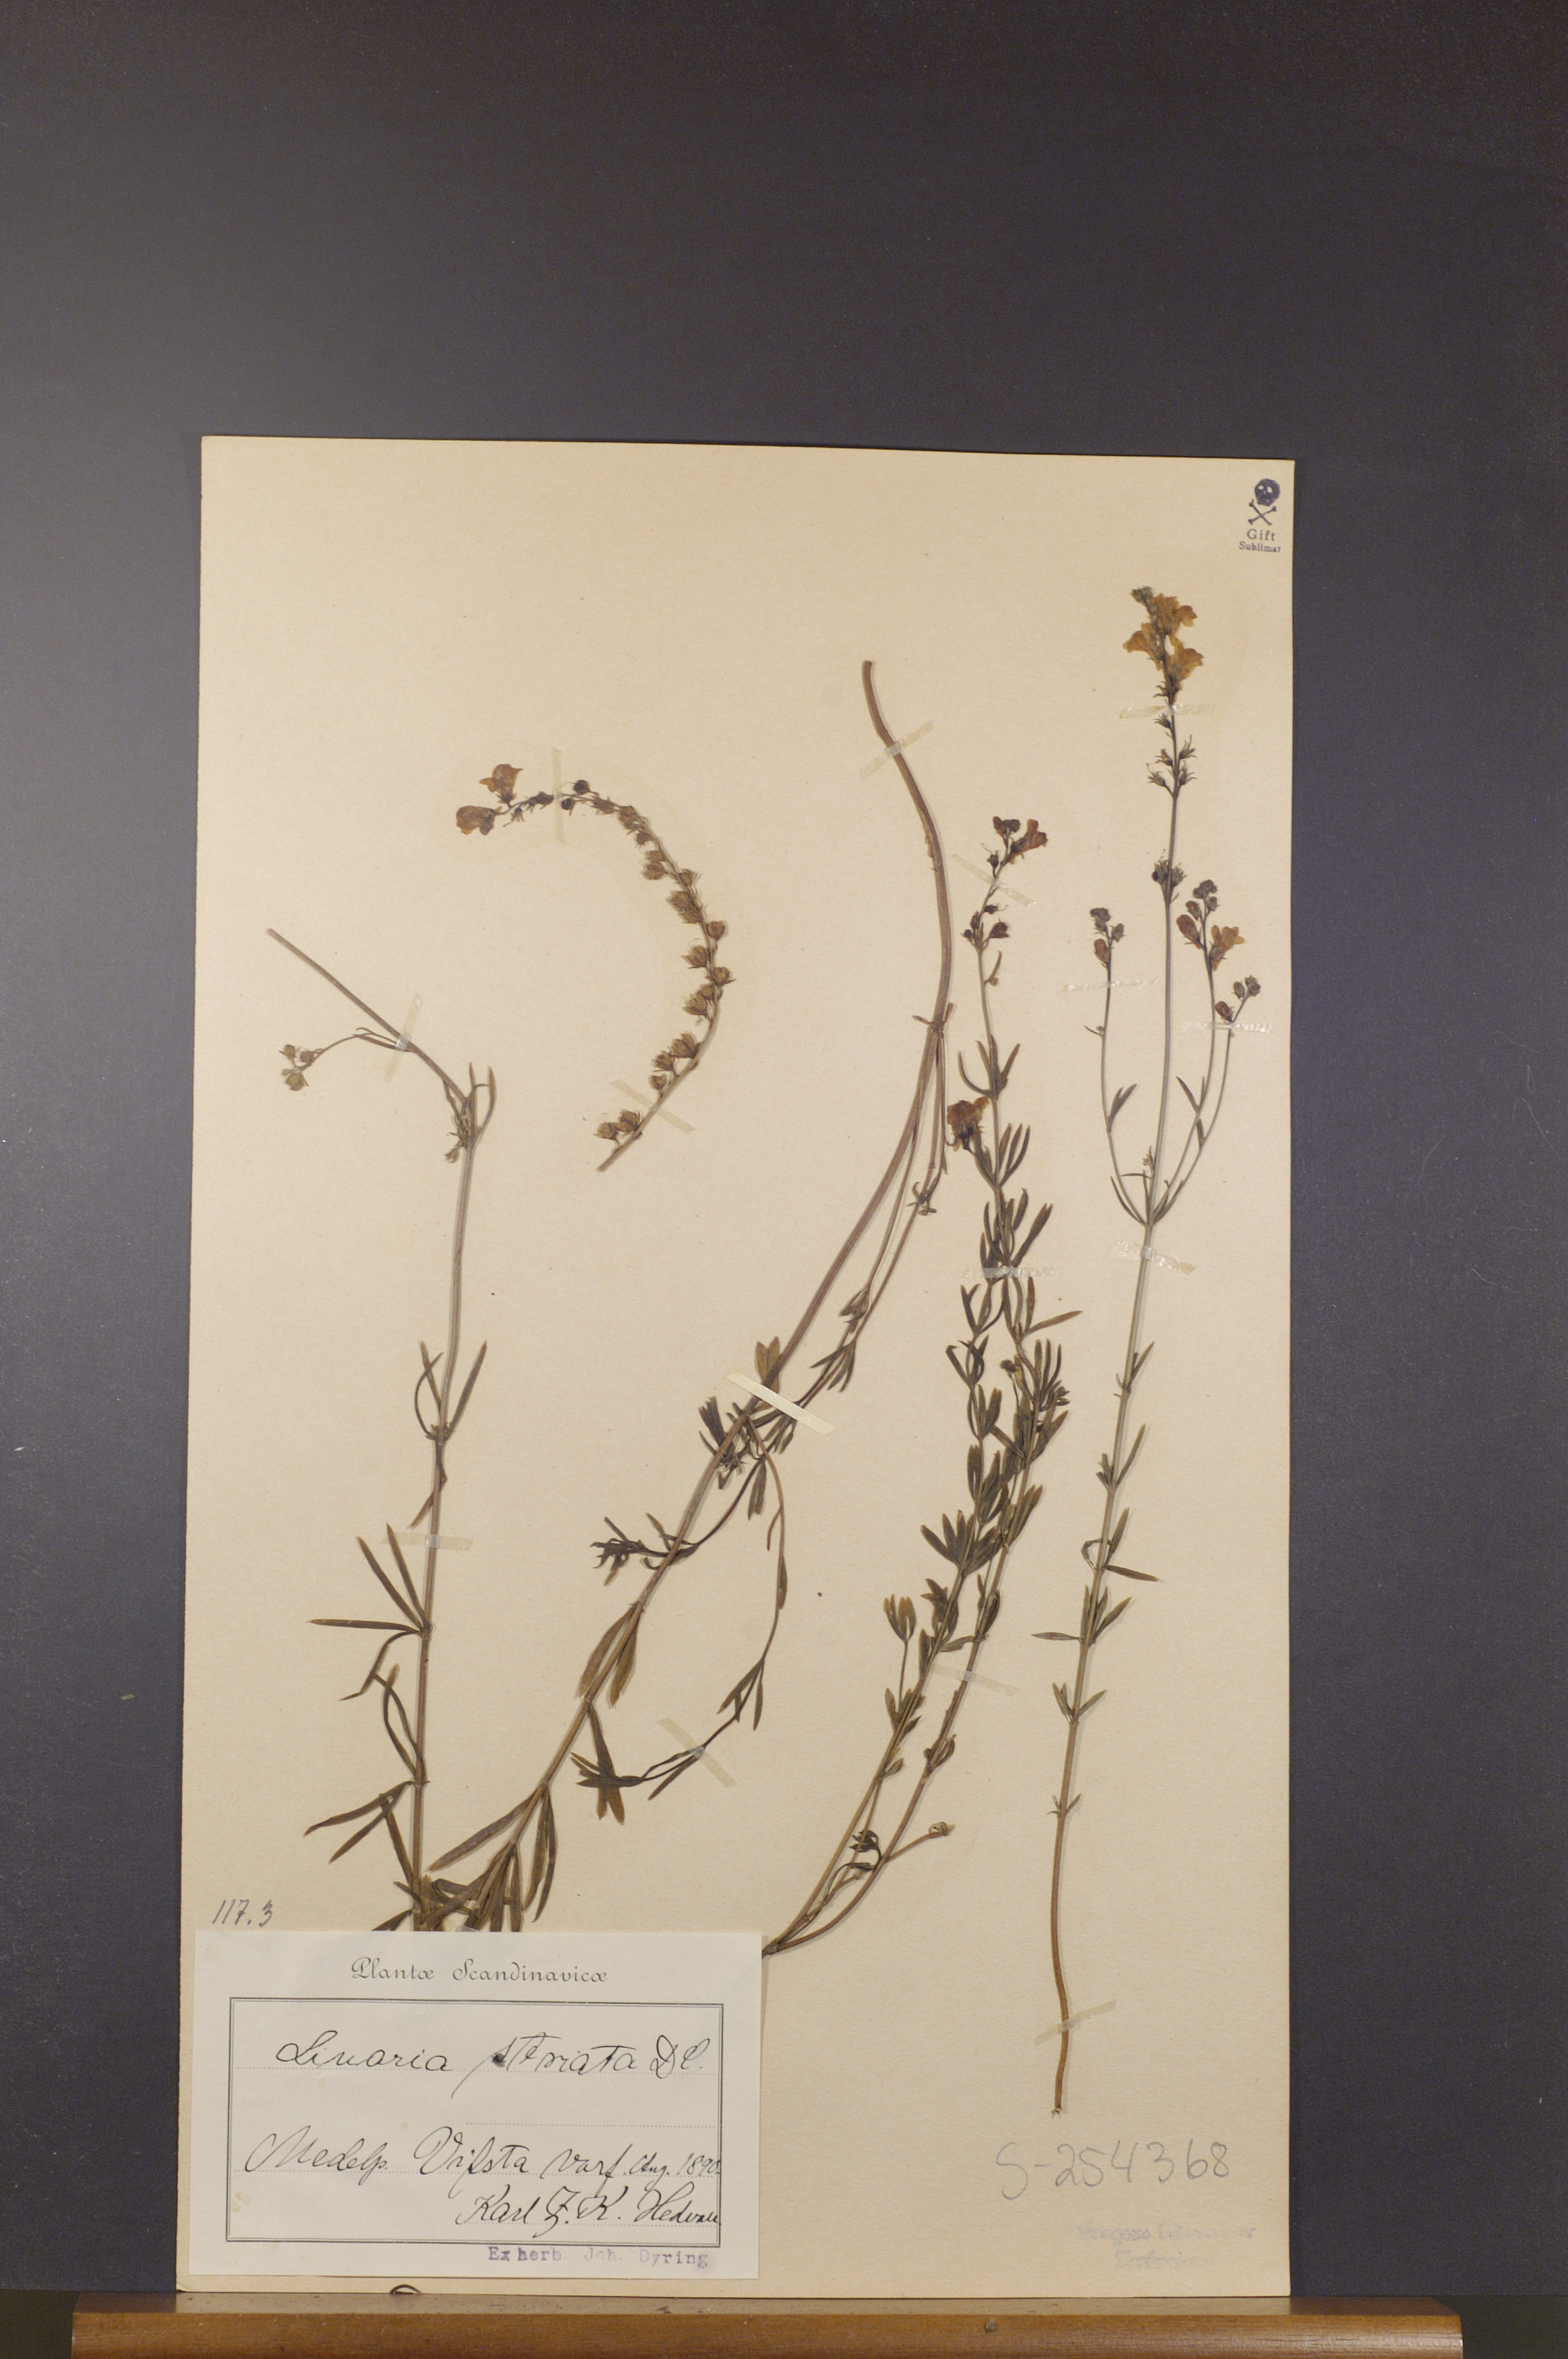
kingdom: Plantae
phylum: Tracheophyta
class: Magnoliopsida
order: Lamiales
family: Plantaginaceae
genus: Linaria
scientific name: Linaria repens
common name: Pale toadflax
